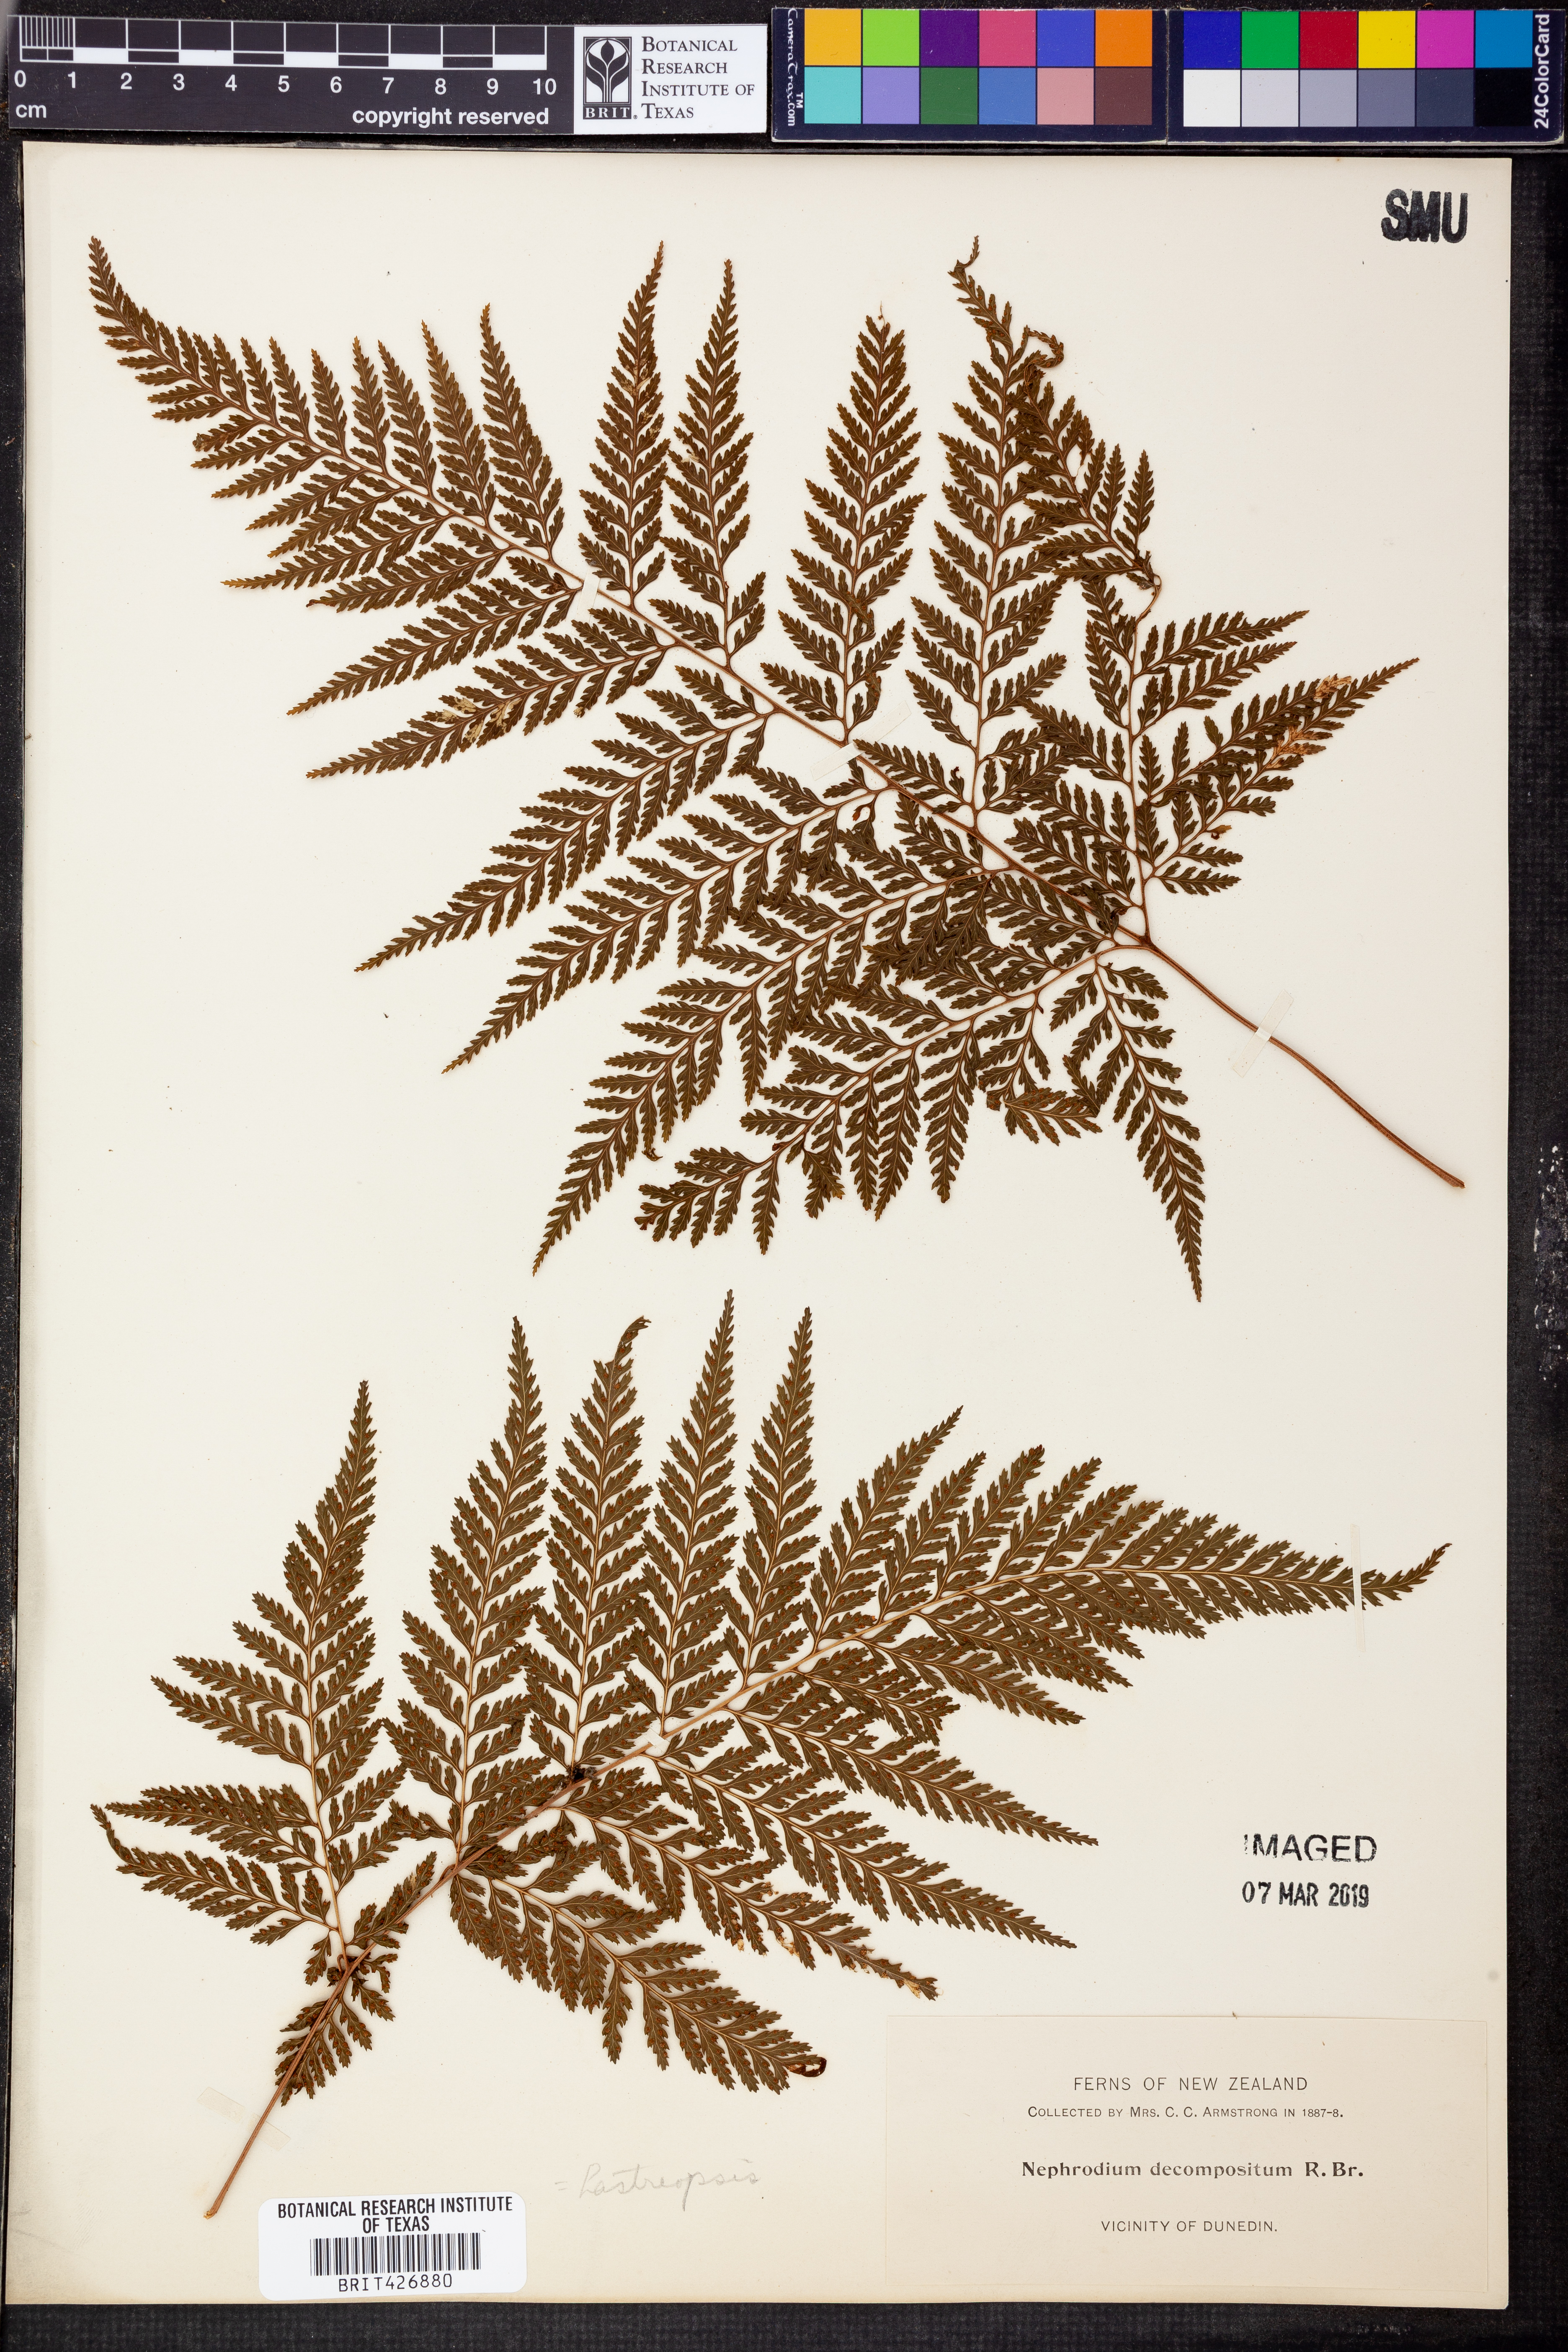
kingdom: Plantae
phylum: Tracheophyta
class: Polypodiopsida
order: Polypodiales
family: Dryopteridaceae
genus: Lastreopsis
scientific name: Lastreopsis decomposita
